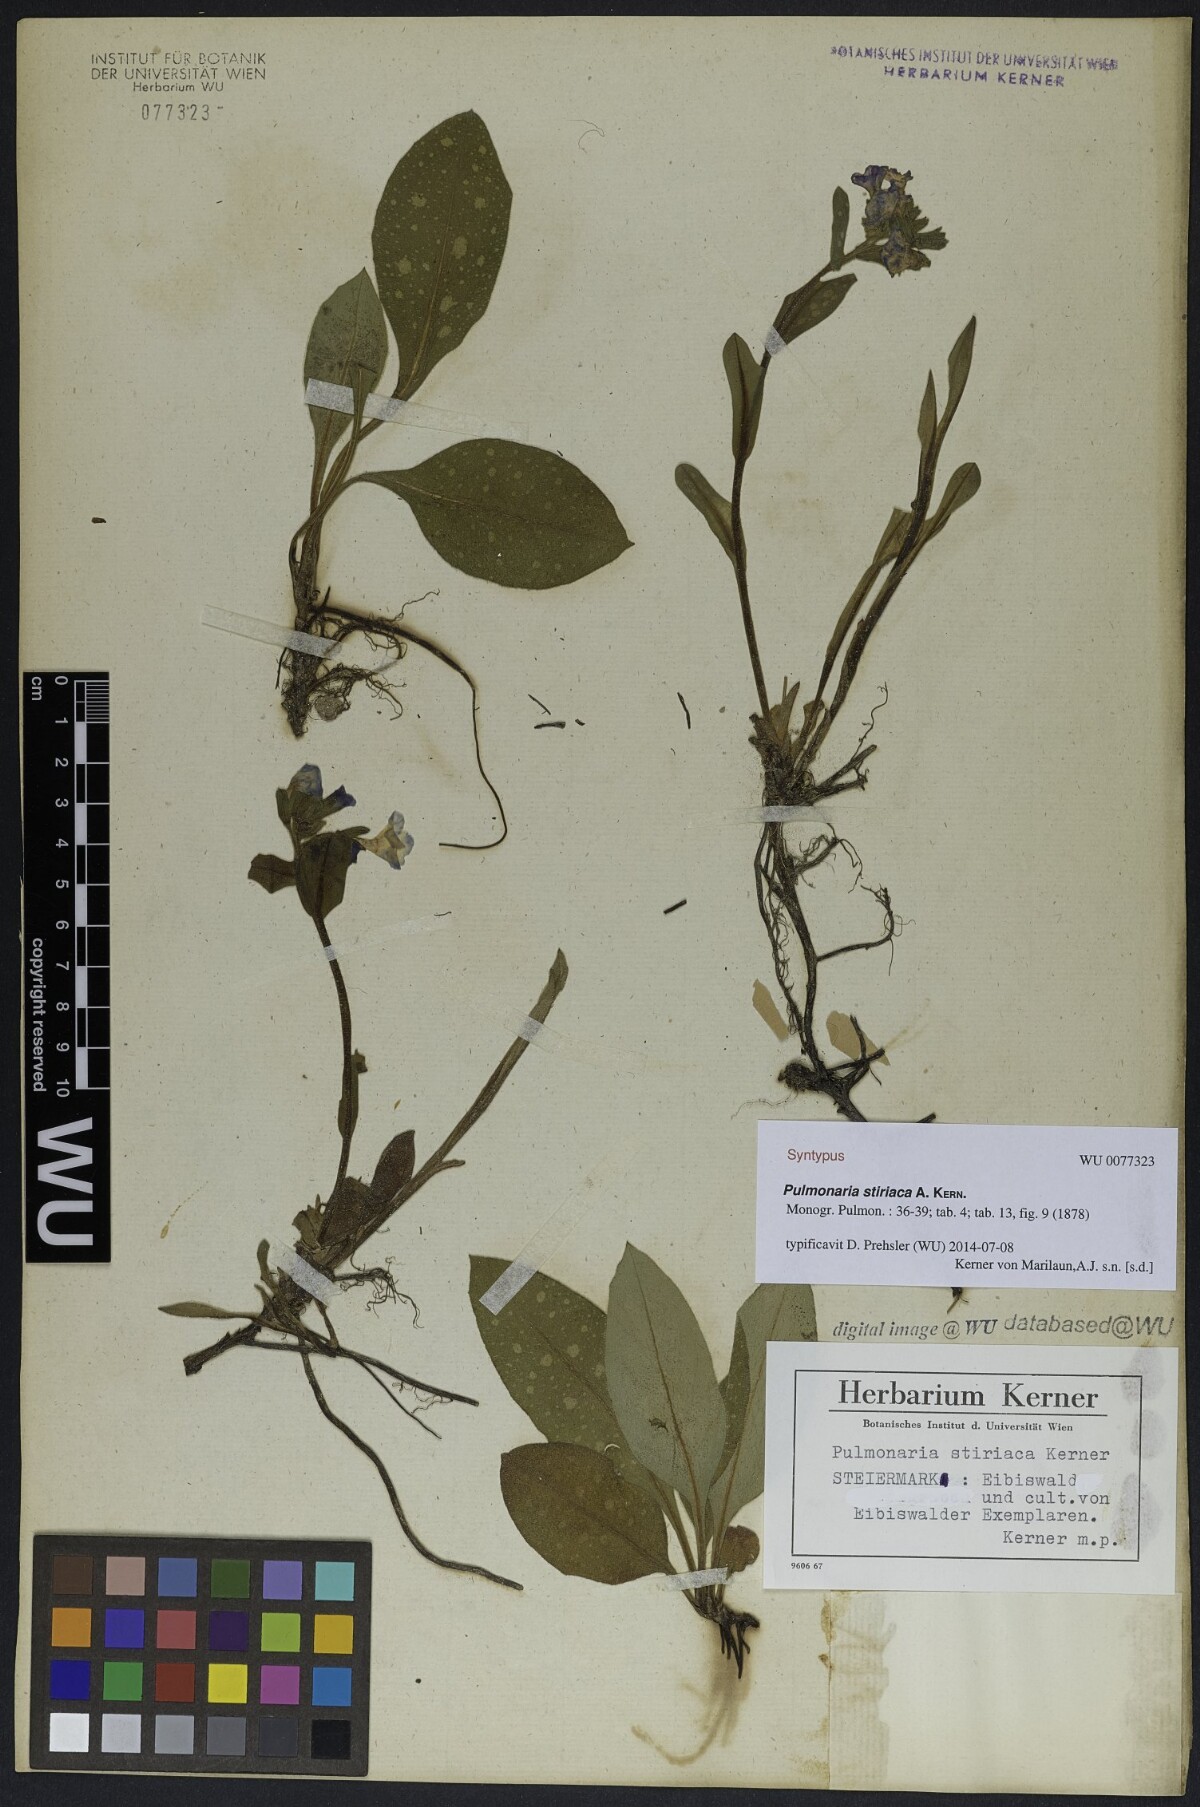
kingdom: Plantae
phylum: Tracheophyta
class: Magnoliopsida
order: Boraginales
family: Boraginaceae
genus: Pulmonaria
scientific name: Pulmonaria stiriaca
